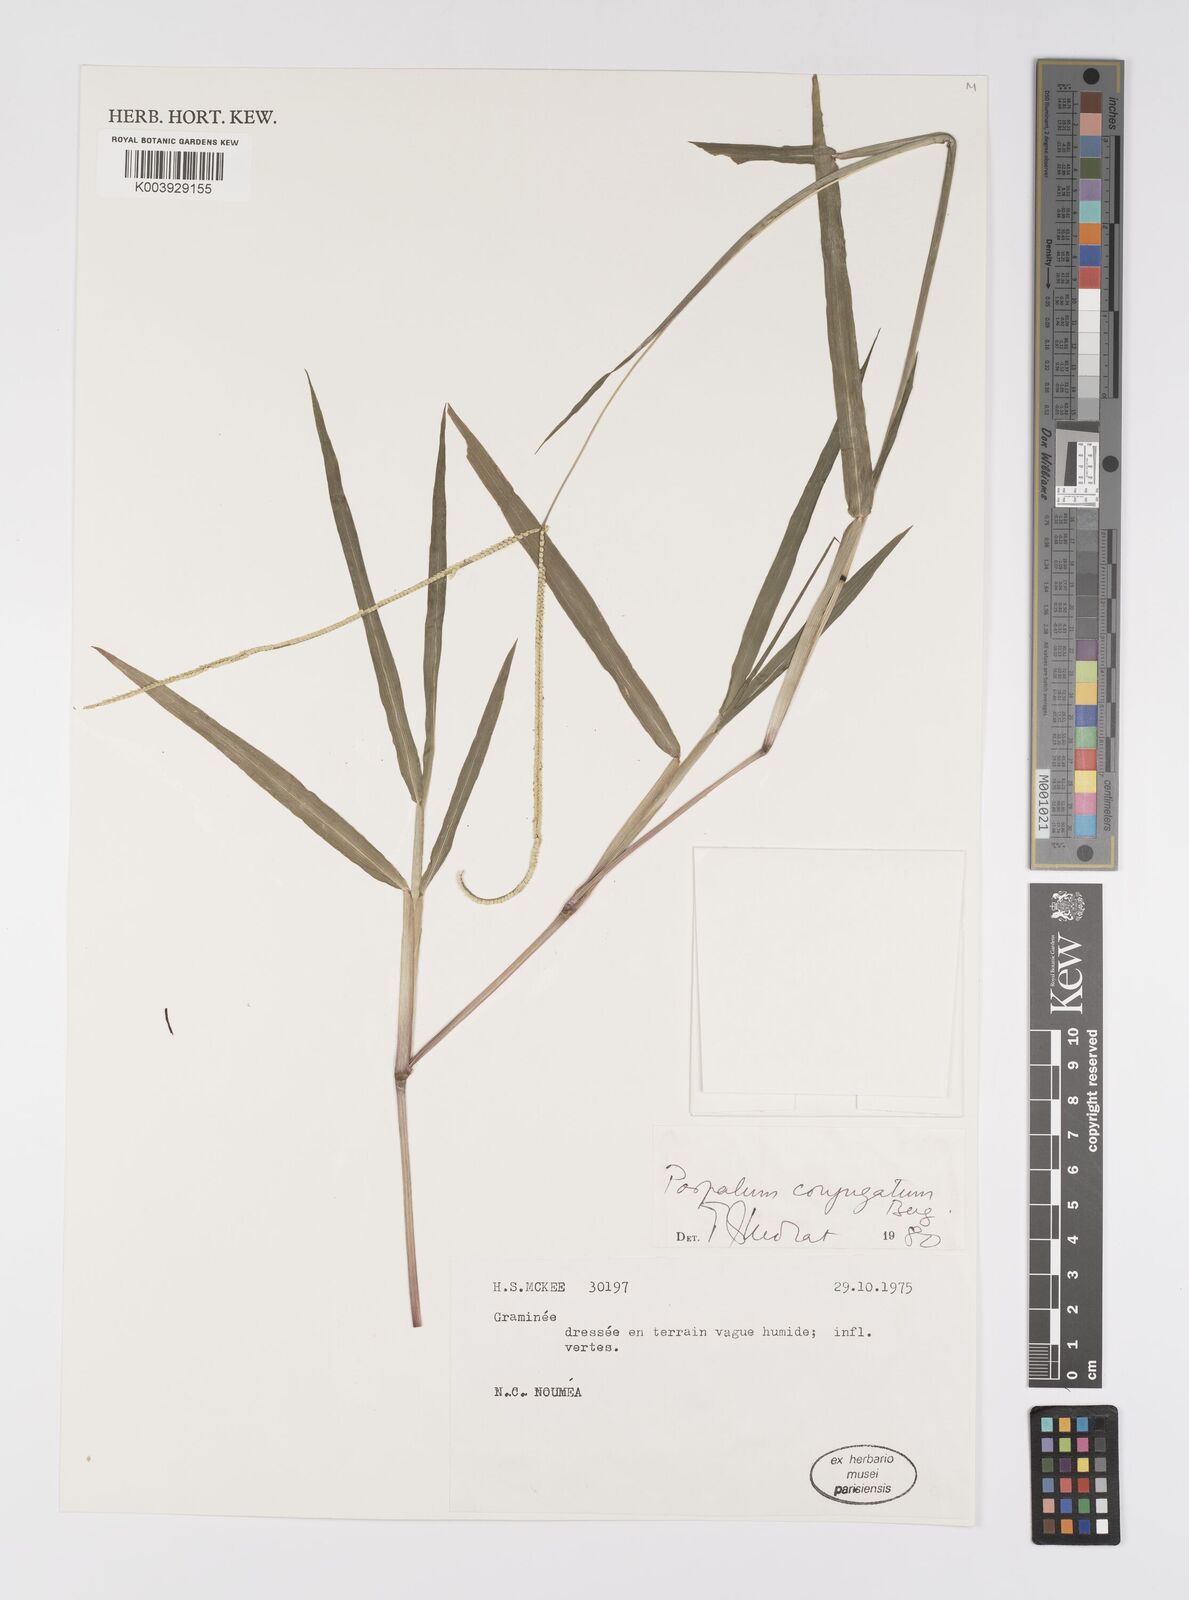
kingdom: Plantae
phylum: Tracheophyta
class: Liliopsida
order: Poales
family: Poaceae
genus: Paspalum
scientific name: Paspalum conjugatum
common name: Hilograss
